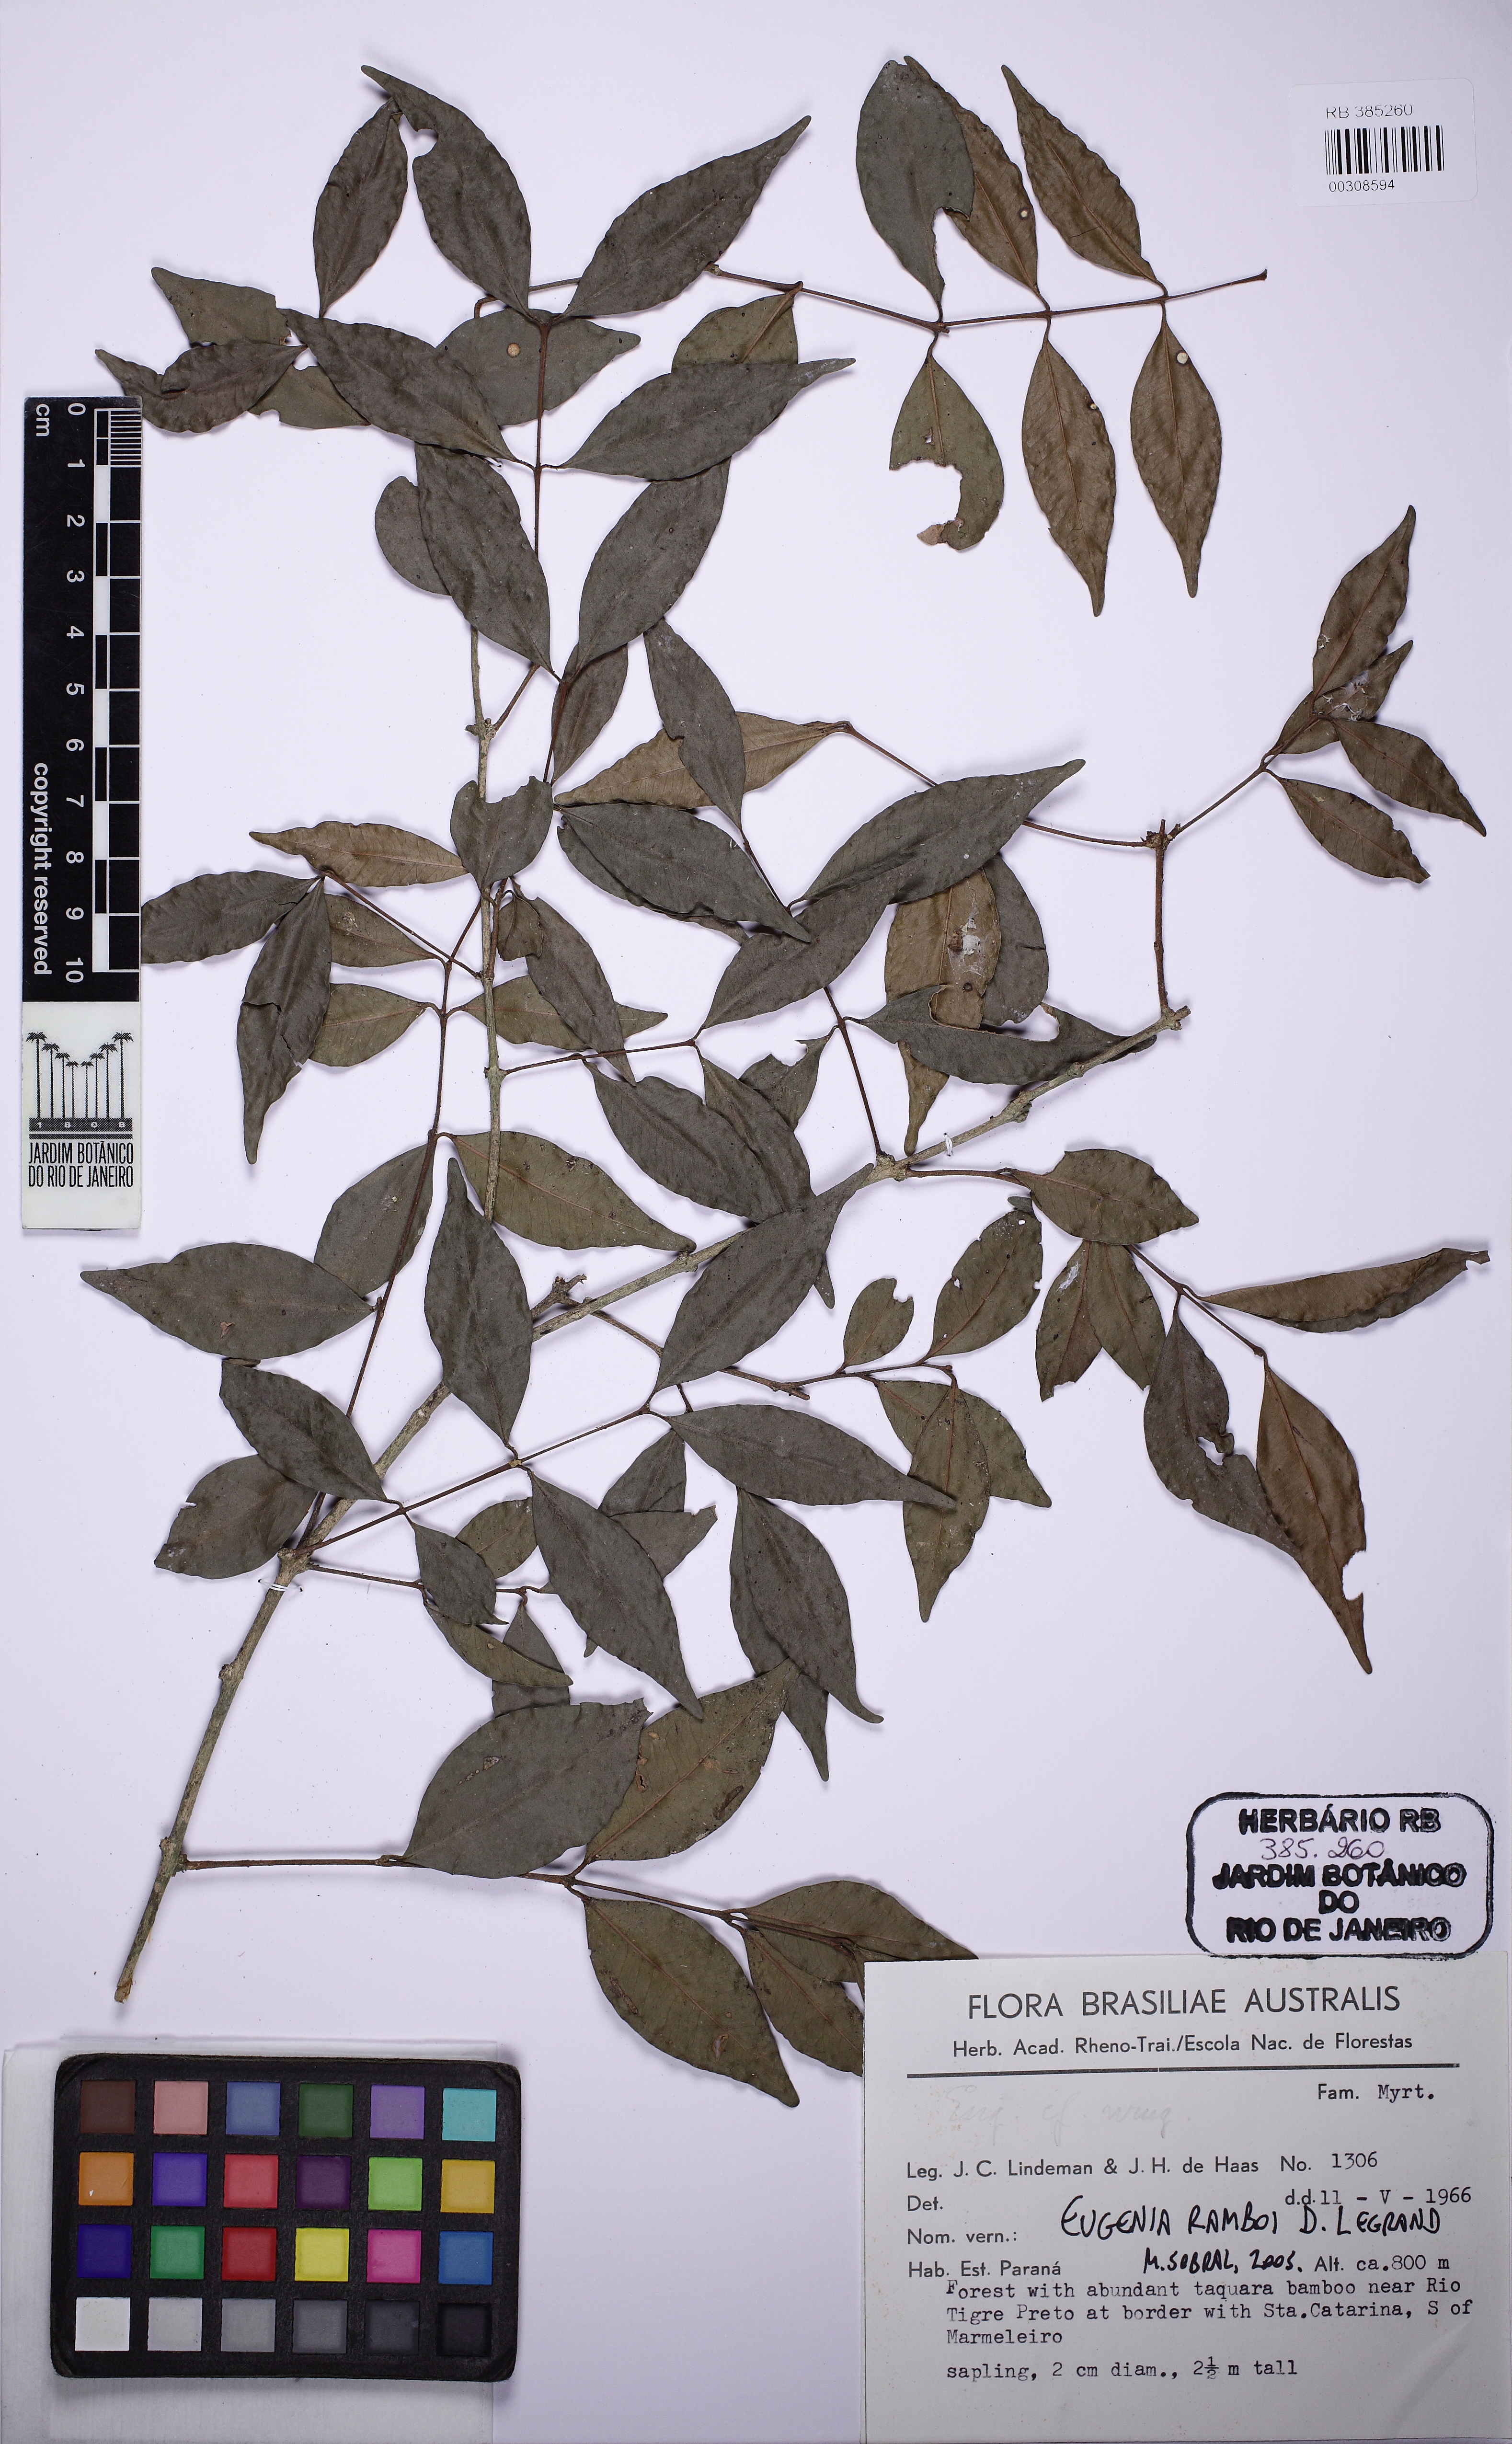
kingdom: Plantae
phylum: Tracheophyta
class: Magnoliopsida
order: Myrtales
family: Myrtaceae
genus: Eugenia
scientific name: Eugenia ramboi
